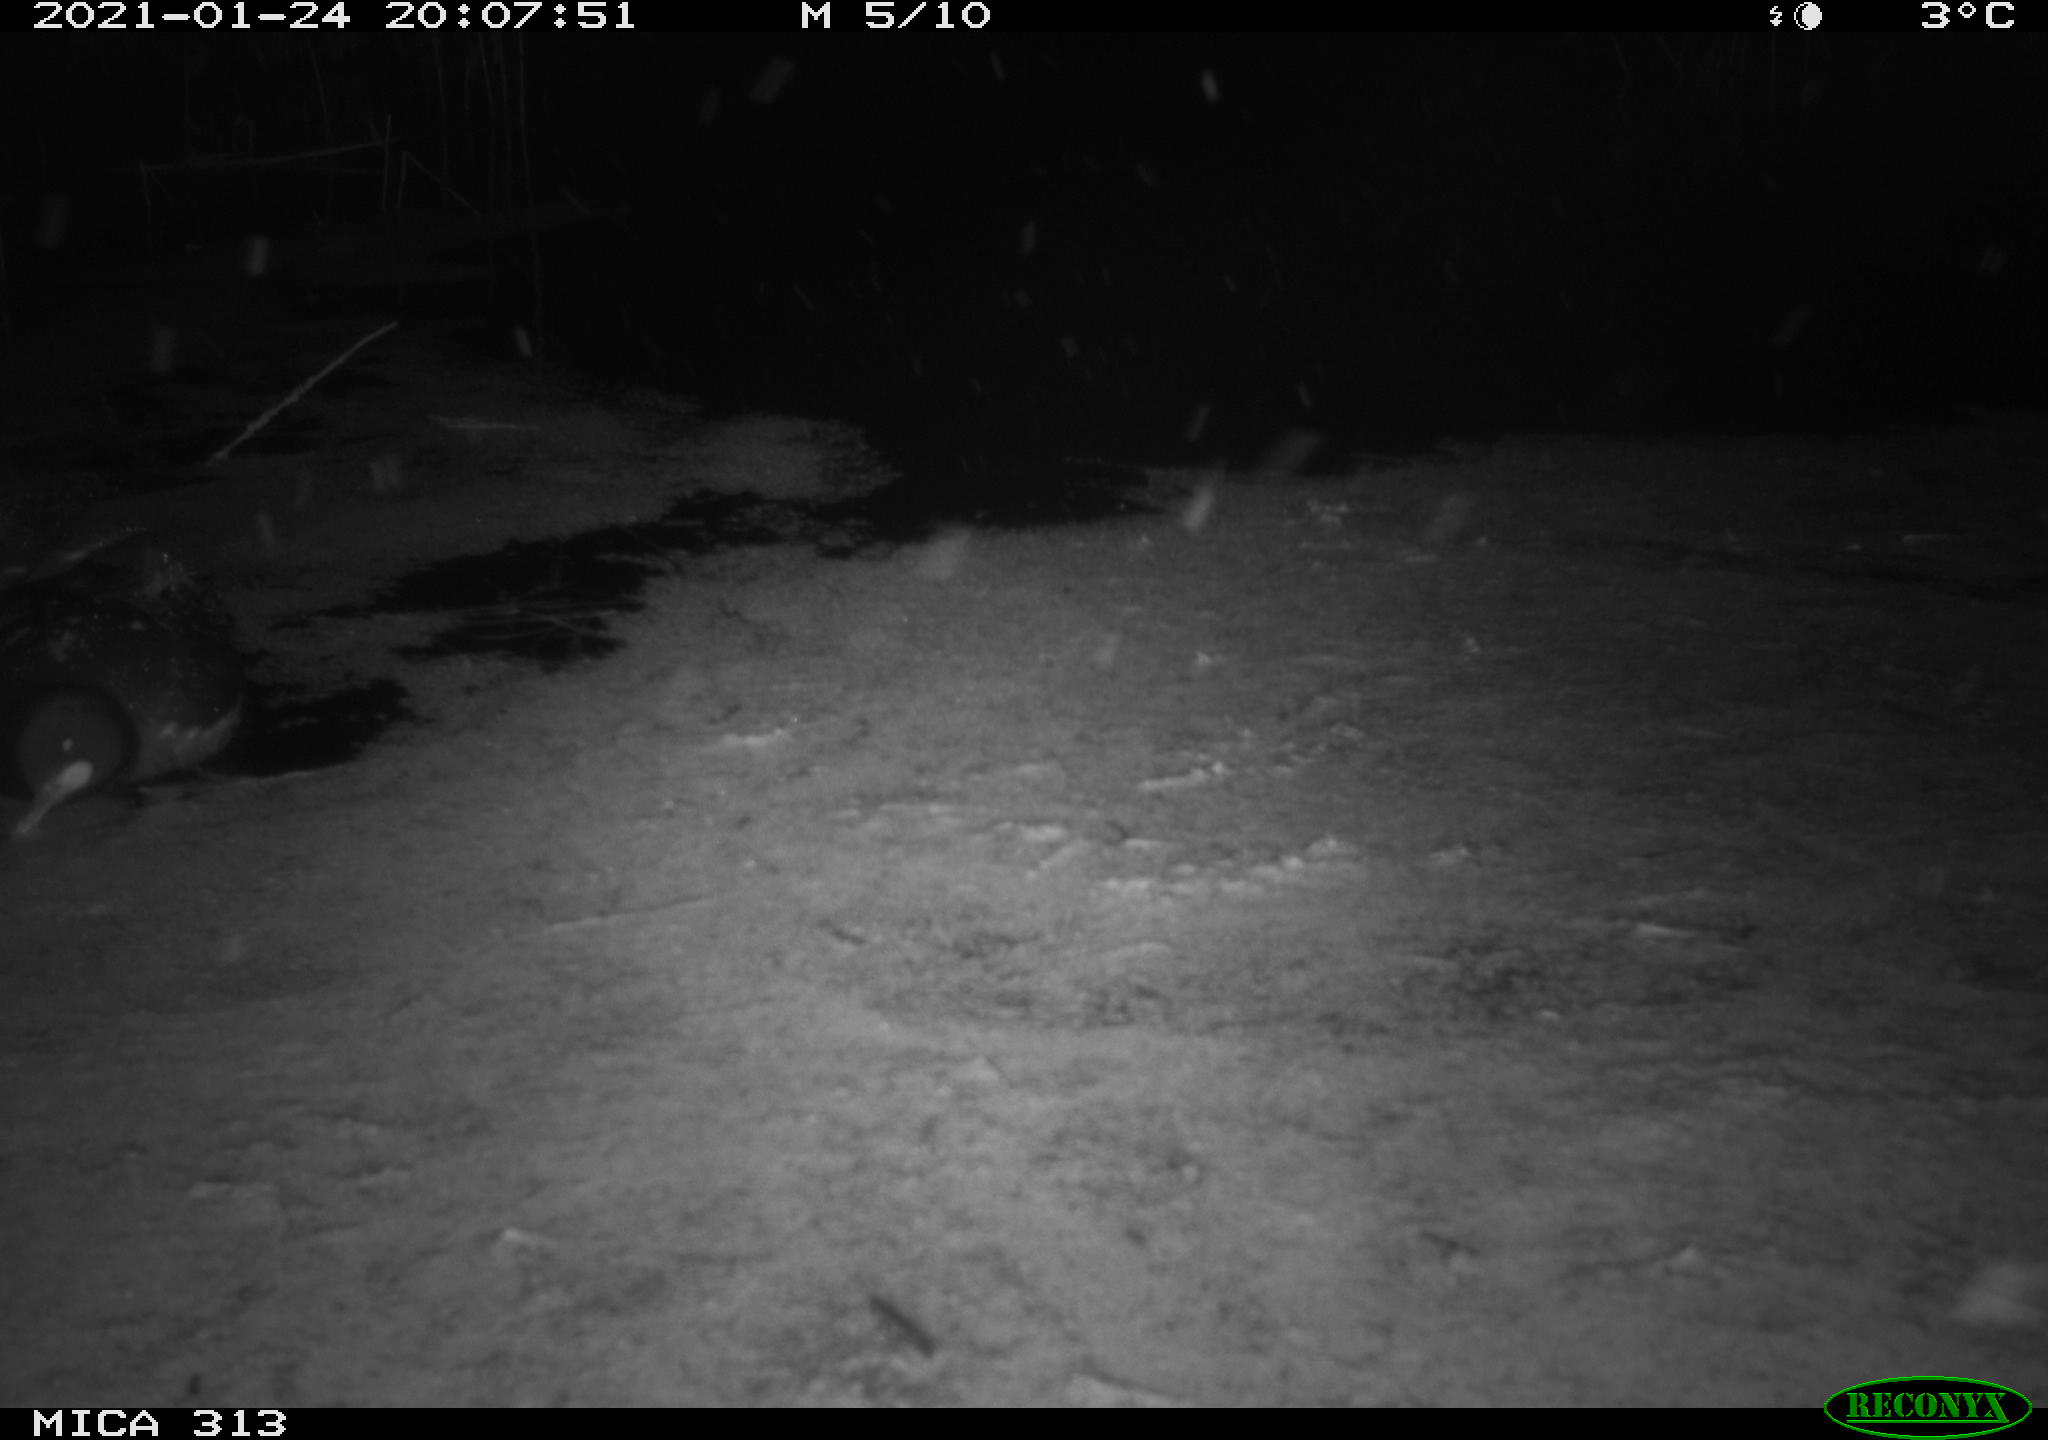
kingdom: Animalia
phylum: Chordata
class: Aves
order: Gruiformes
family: Rallidae
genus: Gallinula
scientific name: Gallinula chloropus
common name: Common moorhen
